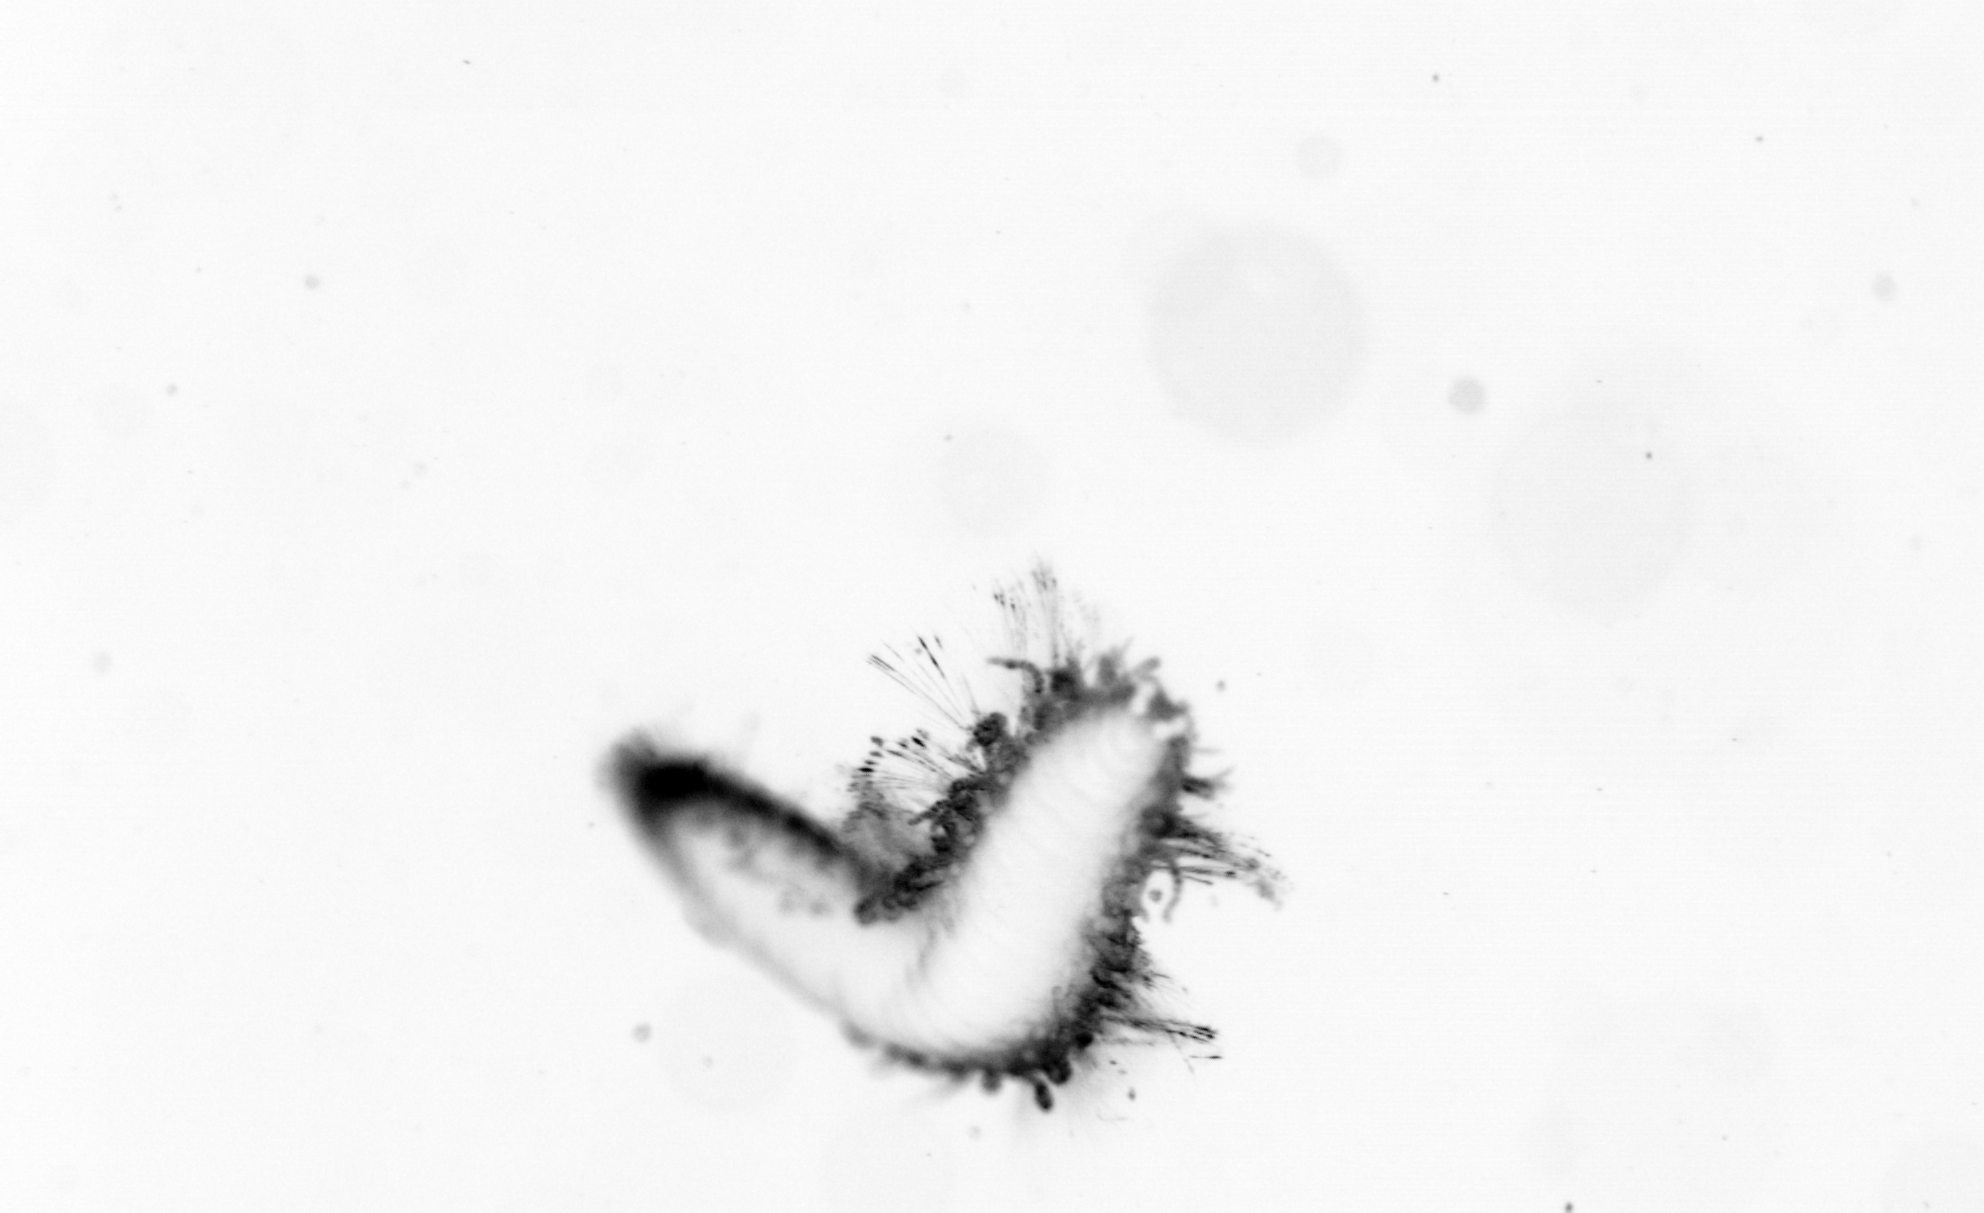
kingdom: Animalia
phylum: Annelida
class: Polychaeta
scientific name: Polychaeta
